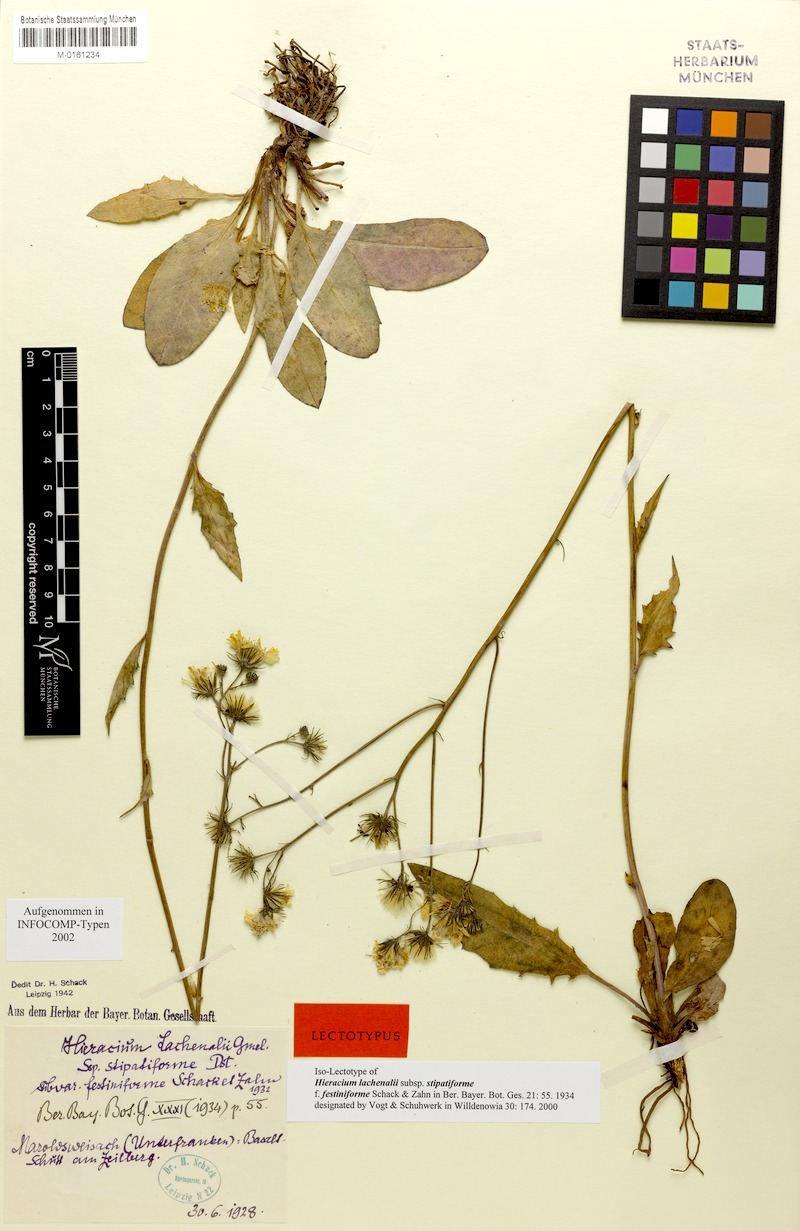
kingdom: Plantae
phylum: Tracheophyta
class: Magnoliopsida
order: Asterales
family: Asteraceae
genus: Hieracium
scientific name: Hieracium lachenalii
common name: Common hawkweed
